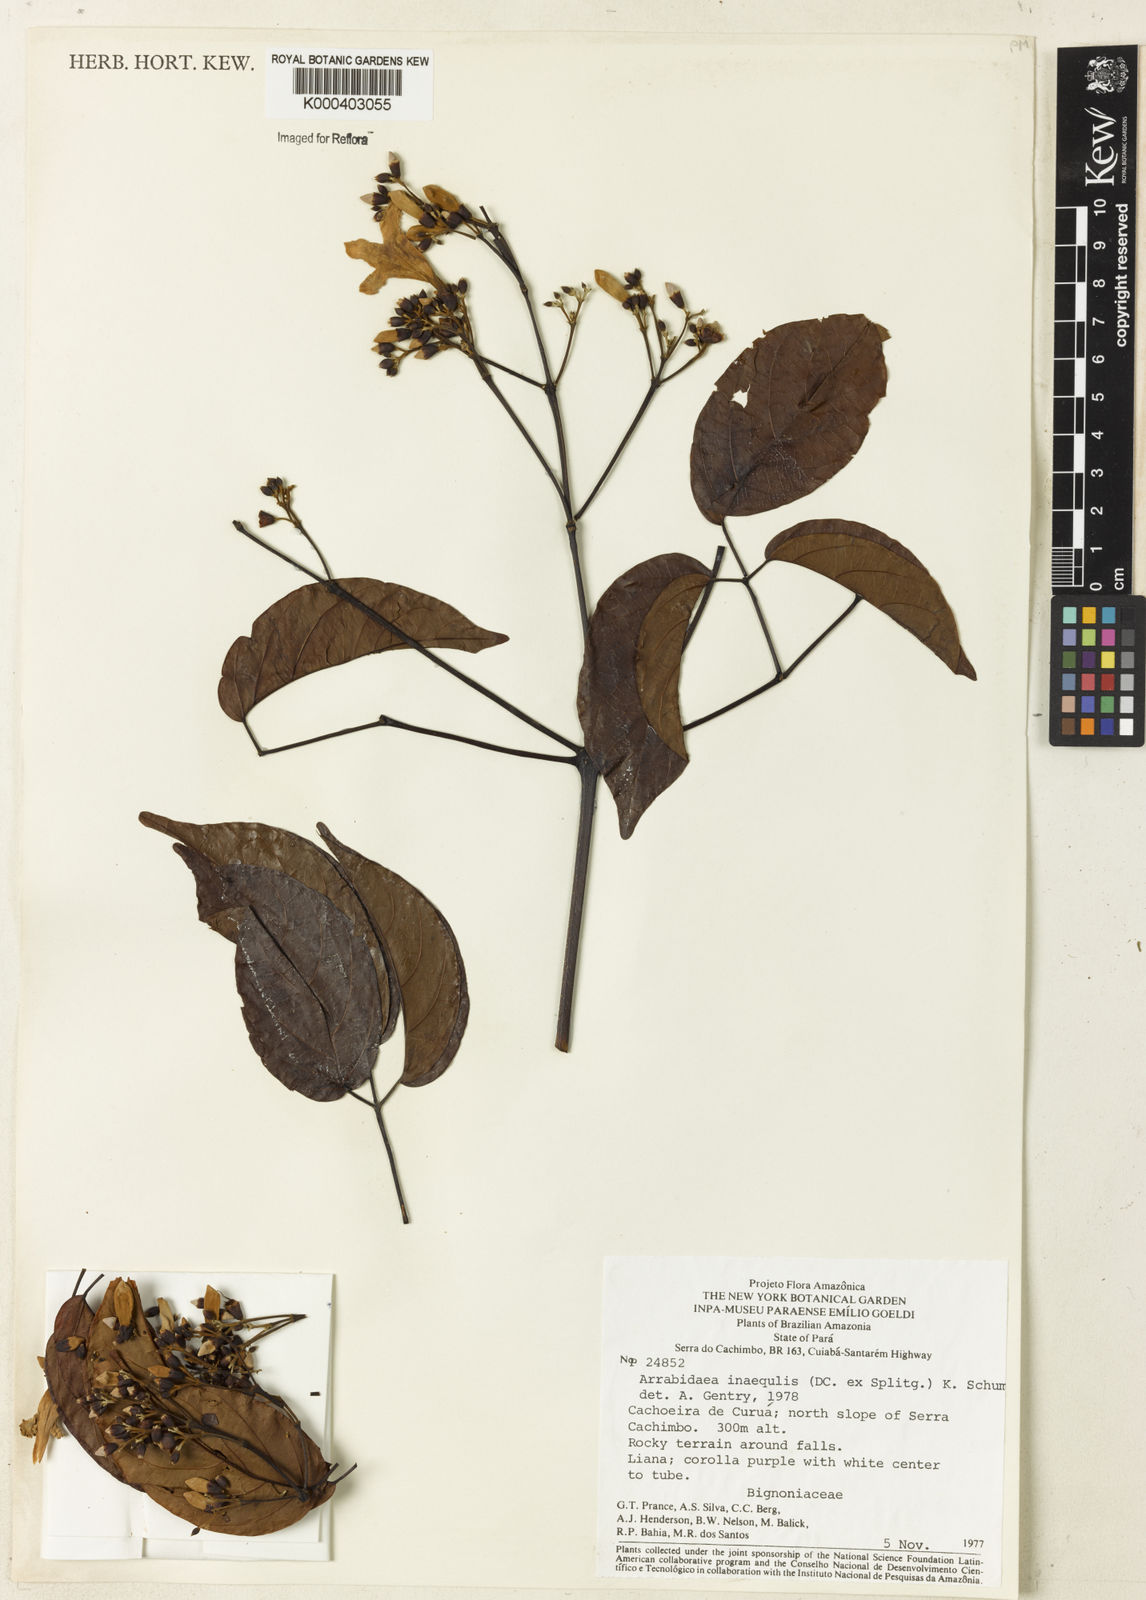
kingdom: Plantae
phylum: Tracheophyta
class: Magnoliopsida
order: Lamiales
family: Bignoniaceae
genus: Cuspidaria
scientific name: Cuspidaria inaequalis
